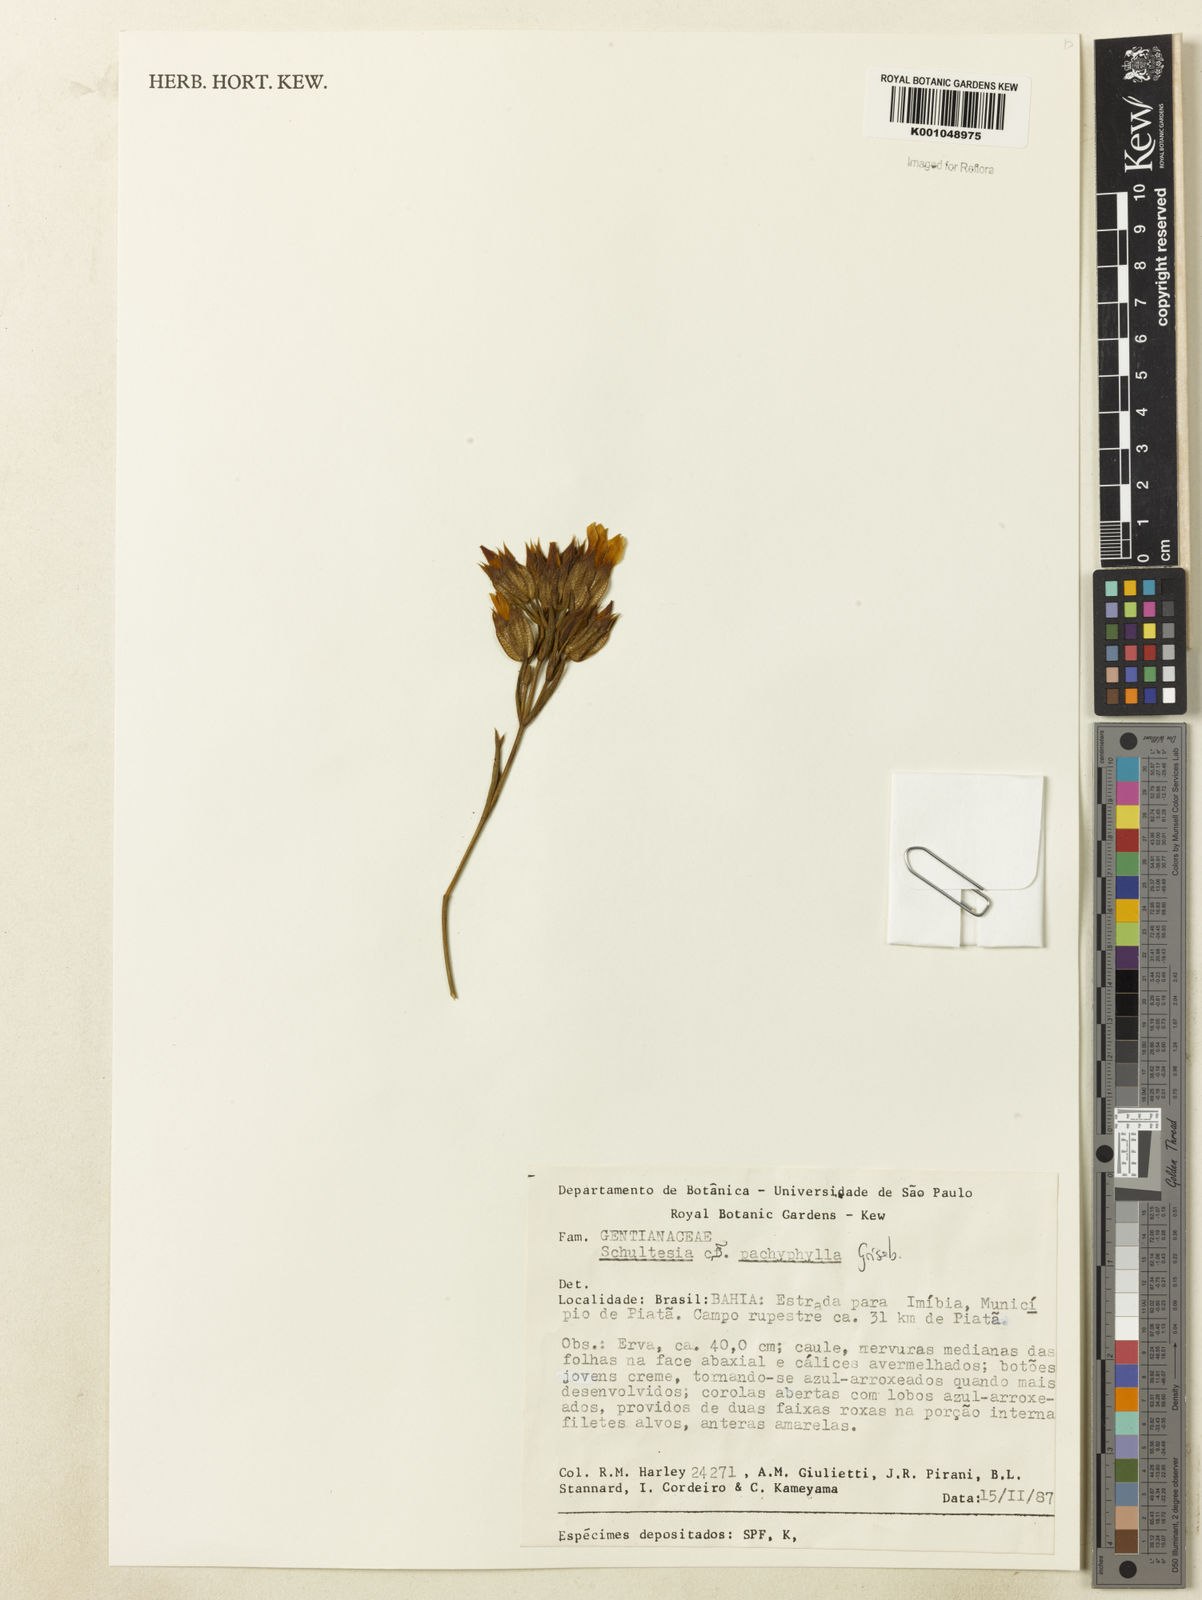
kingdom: Plantae
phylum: Tracheophyta
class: Magnoliopsida
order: Gentianales
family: Gentianaceae
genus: Schultesia
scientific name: Schultesia pachyphylla
